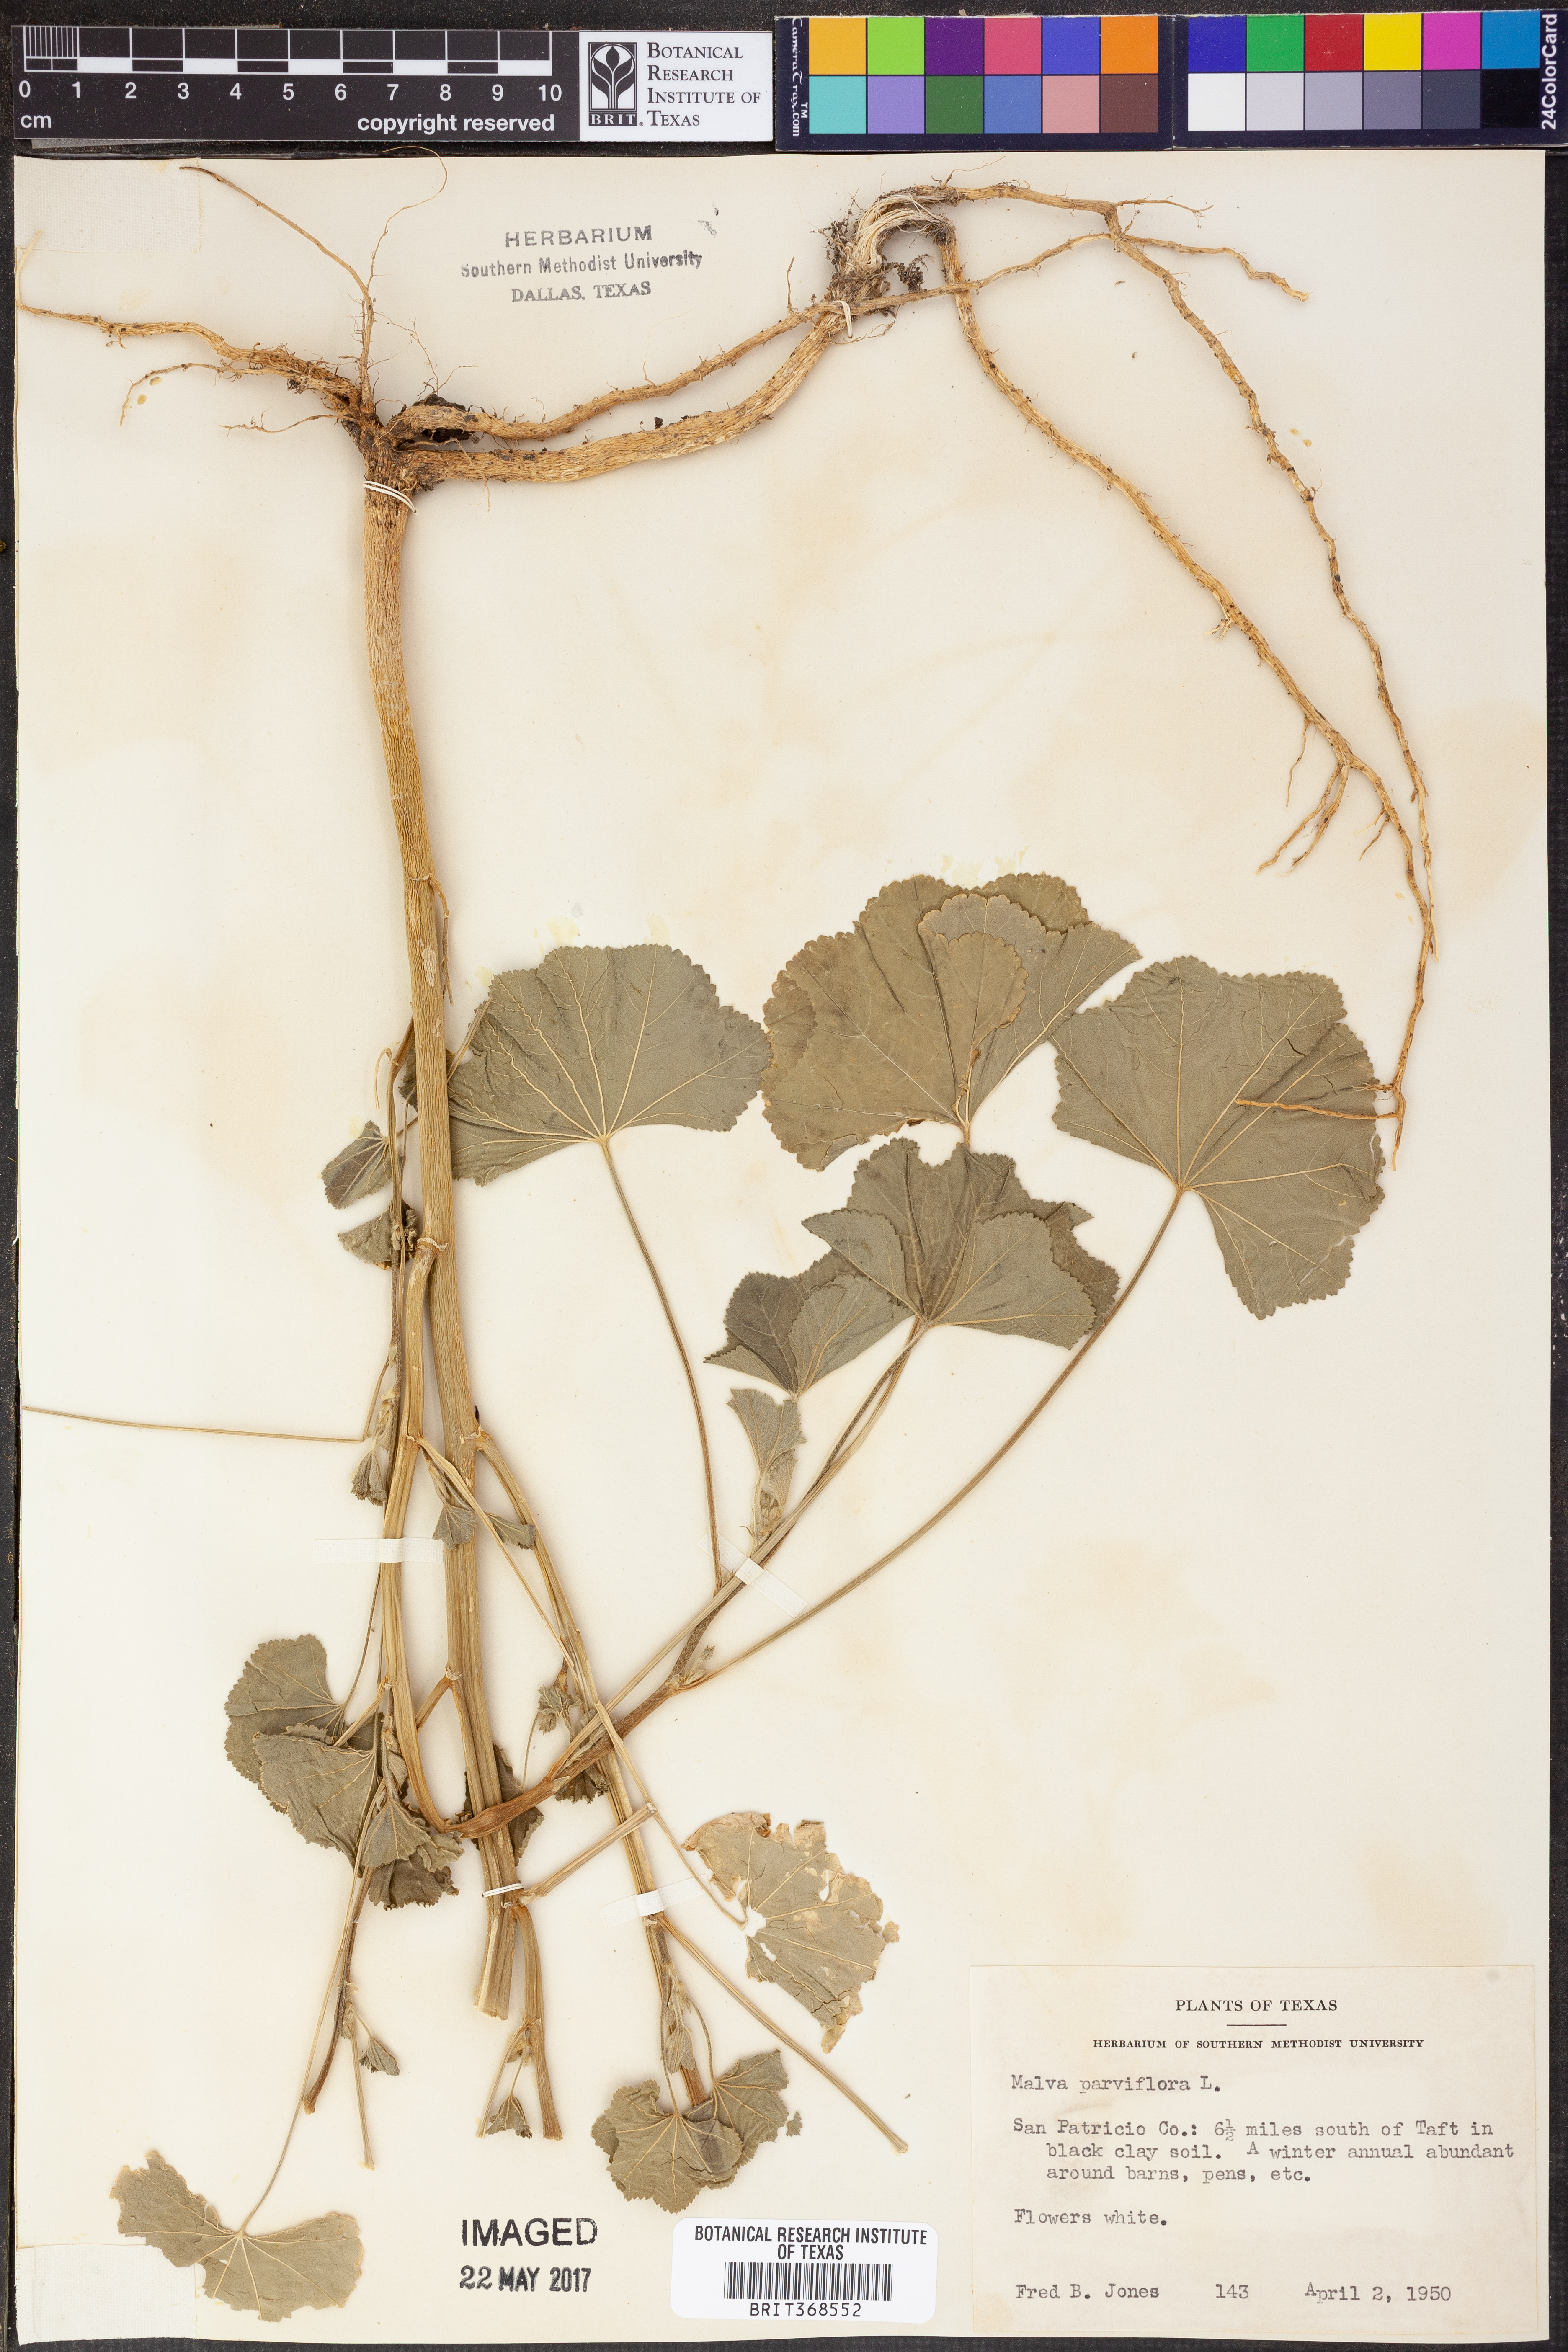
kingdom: Plantae
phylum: Tracheophyta
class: Magnoliopsida
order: Malvales
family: Malvaceae
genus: Malva
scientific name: Malva parviflora
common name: Least mallow
